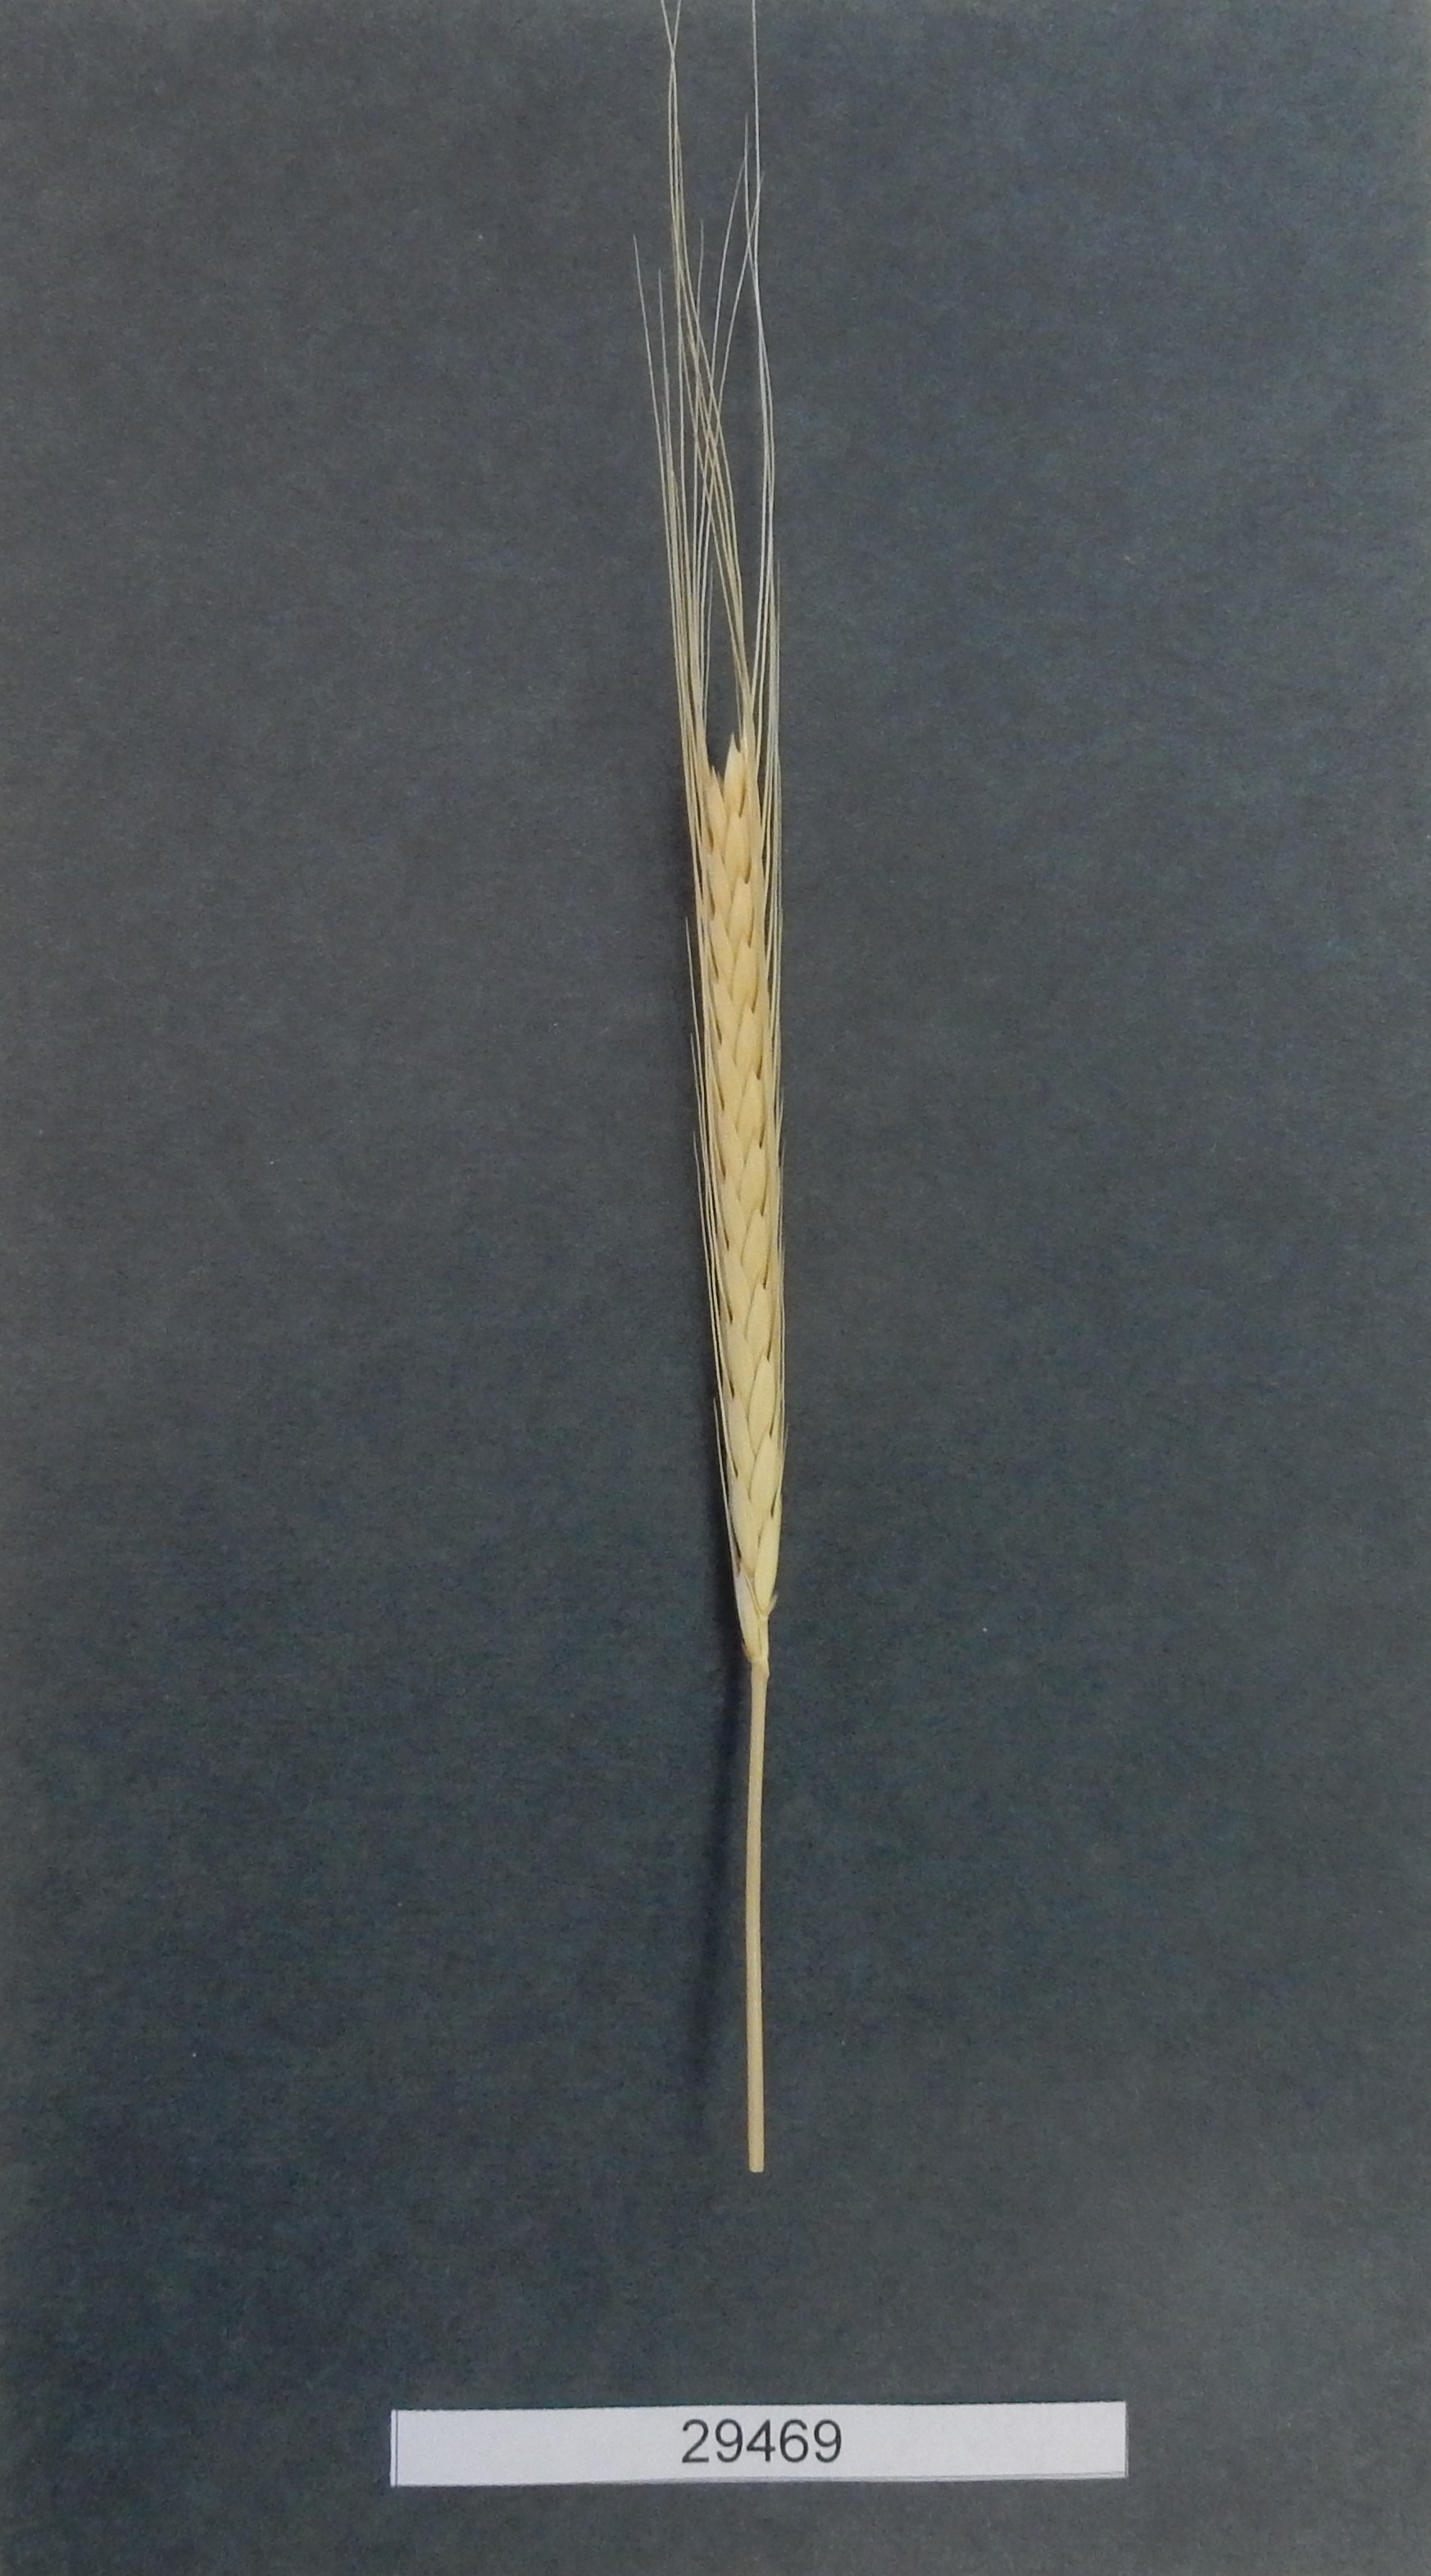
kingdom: Plantae
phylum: Tracheophyta
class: Liliopsida
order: Poales
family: Poaceae
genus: Triticum
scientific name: Triticum urartu
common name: Red wild einkorn
